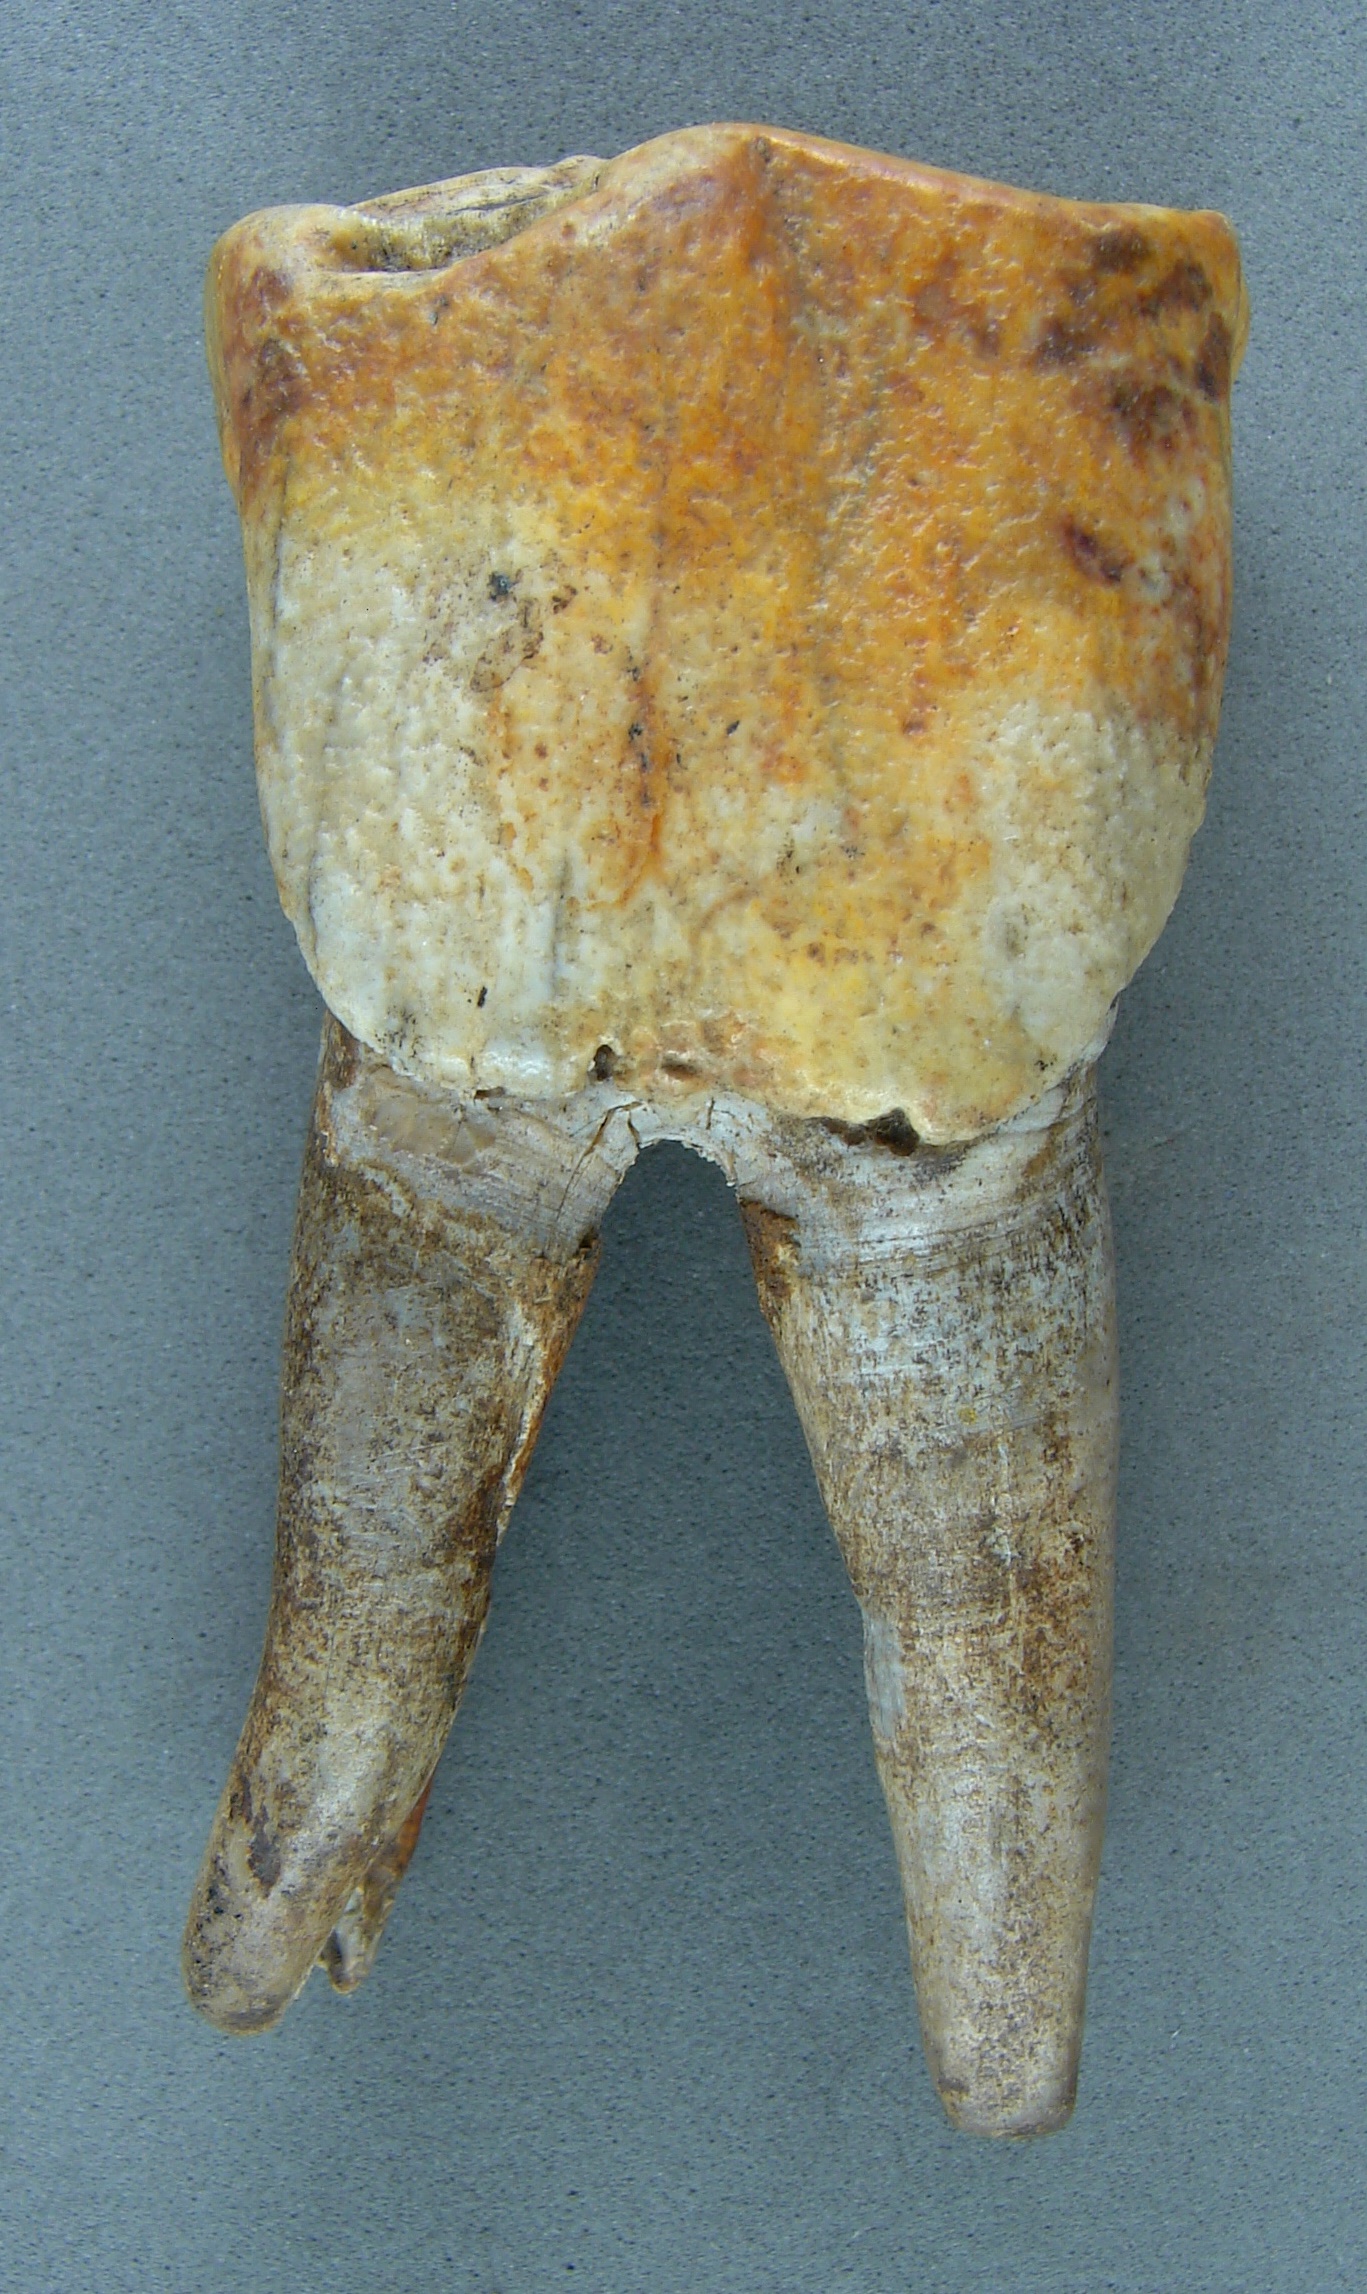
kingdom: Animalia
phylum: Chordata
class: Mammalia
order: Perissodactyla
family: Rhinocerotidae
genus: Rhinoceros
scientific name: Rhinoceros
